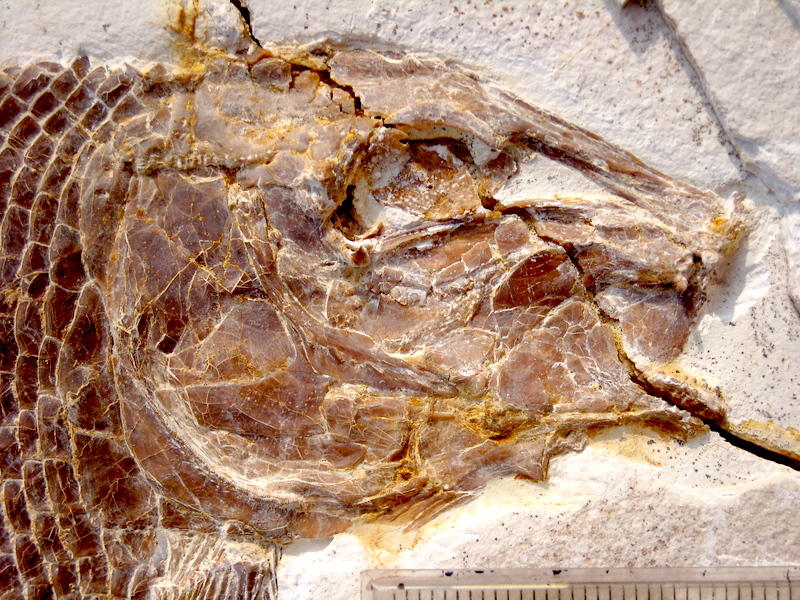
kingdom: Animalia
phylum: Chordata
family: Callipurbeckiidae
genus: Macrosemimimus
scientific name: Macrosemimimus fegerti
